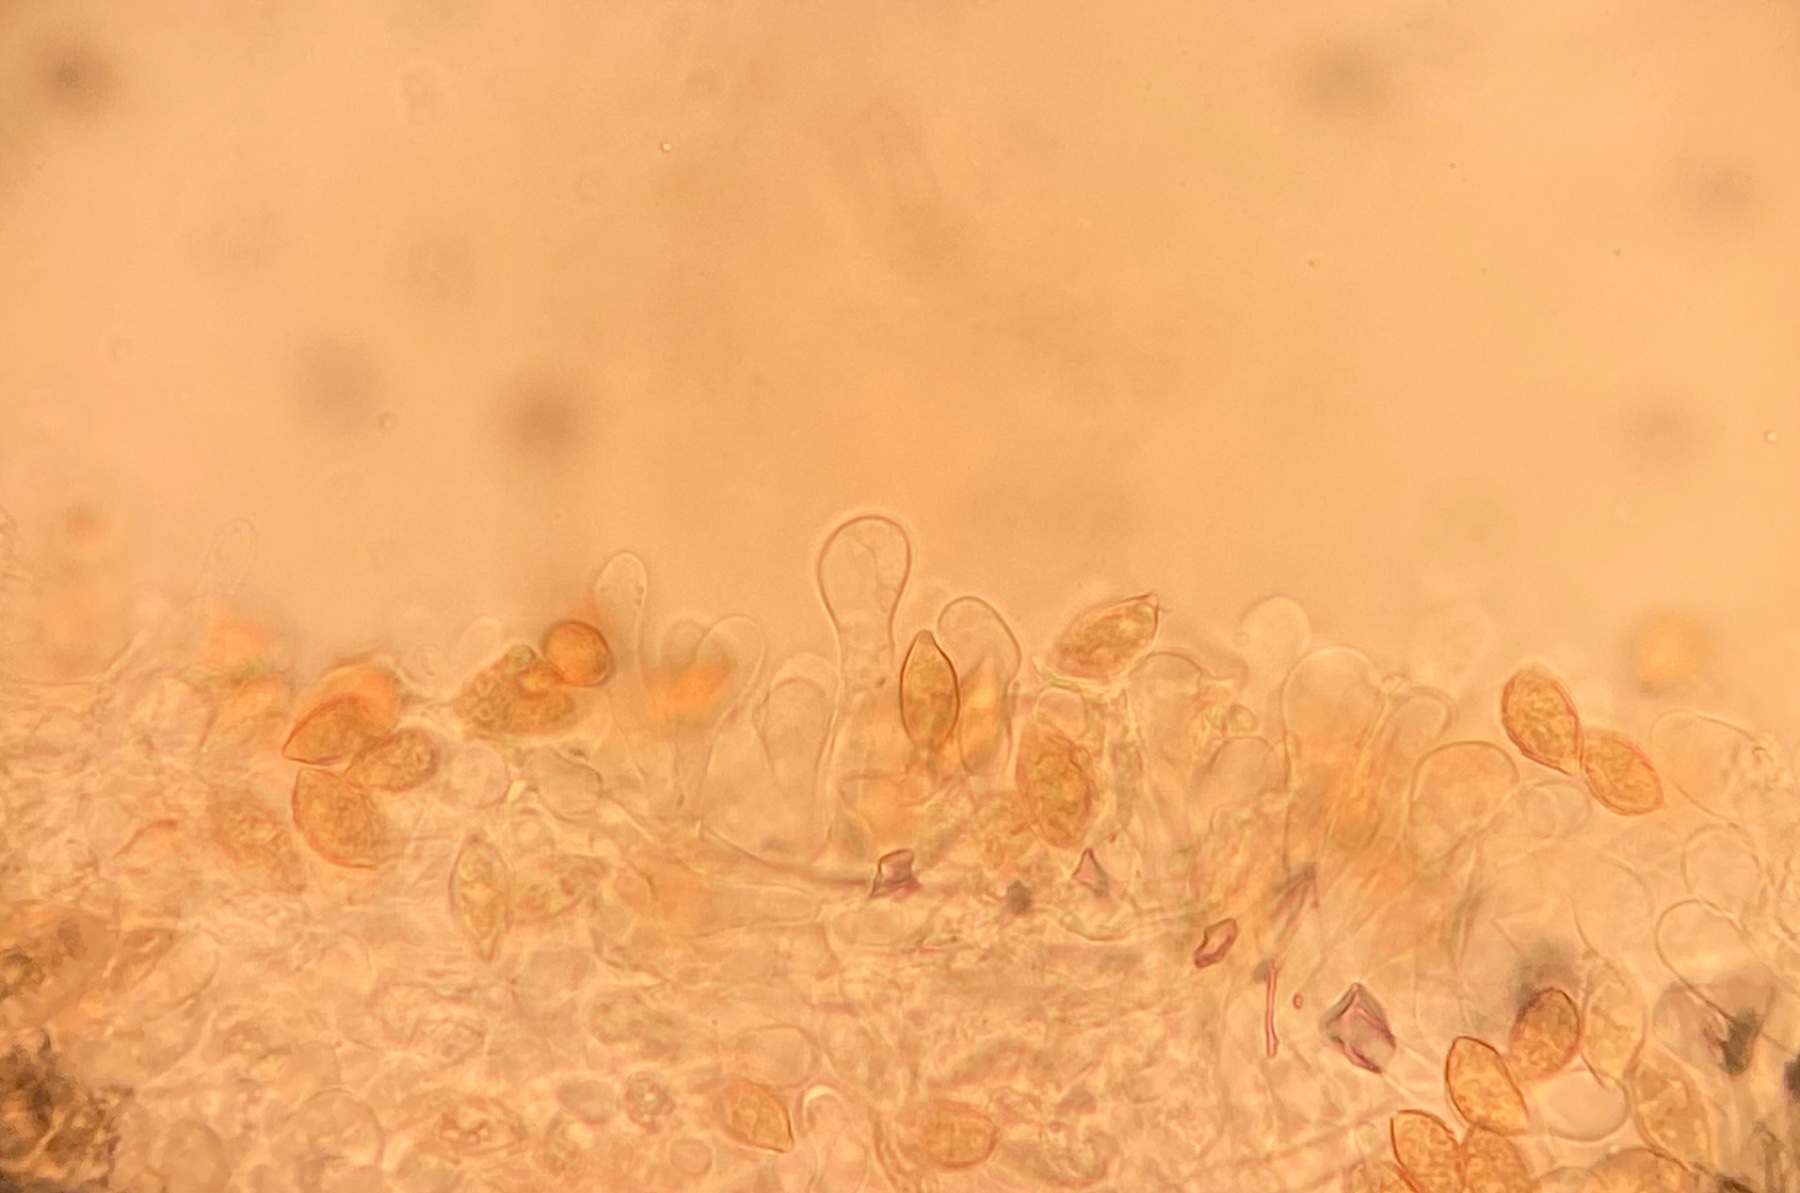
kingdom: Fungi
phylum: Basidiomycota
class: Agaricomycetes
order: Agaricales
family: Hymenogastraceae
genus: Naucoria
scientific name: Naucoria bohemica
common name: birke-knaphat
